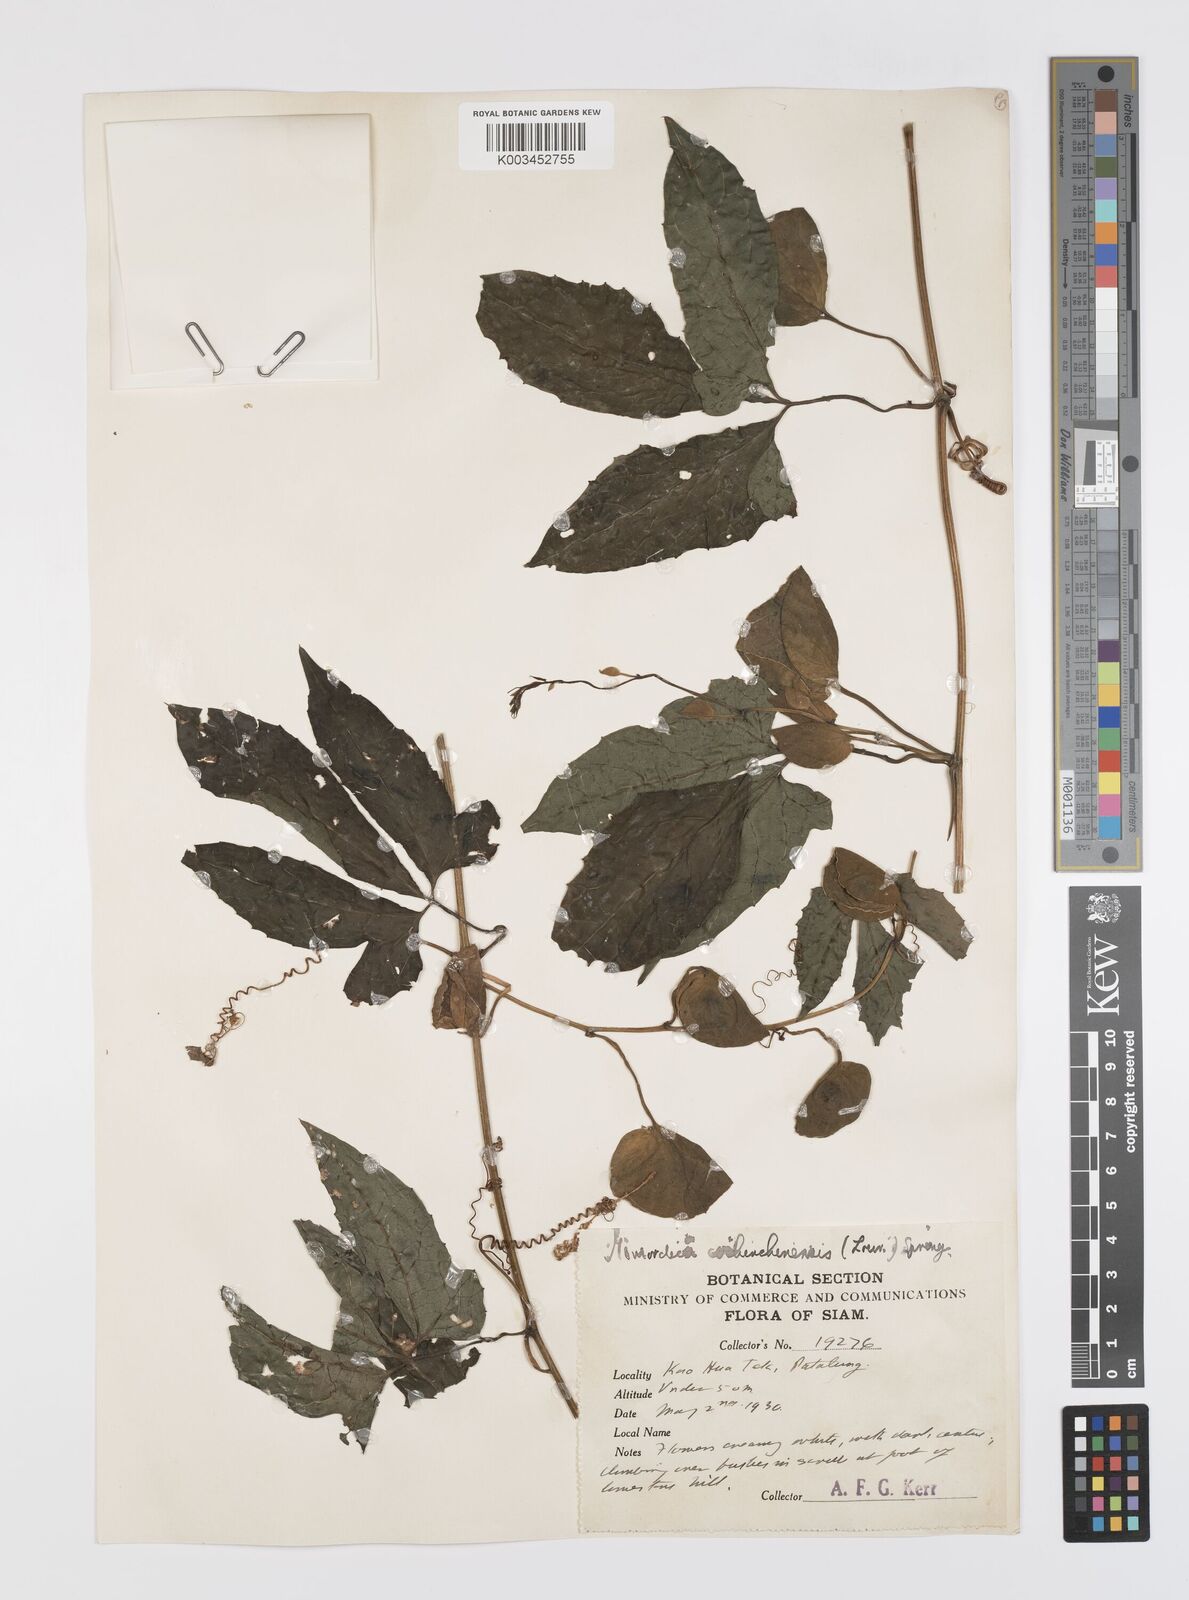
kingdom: Plantae
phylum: Tracheophyta
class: Magnoliopsida
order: Cucurbitales
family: Cucurbitaceae
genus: Momordica
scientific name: Momordica cochinchinensis
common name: Chinese bitter-cucumber
